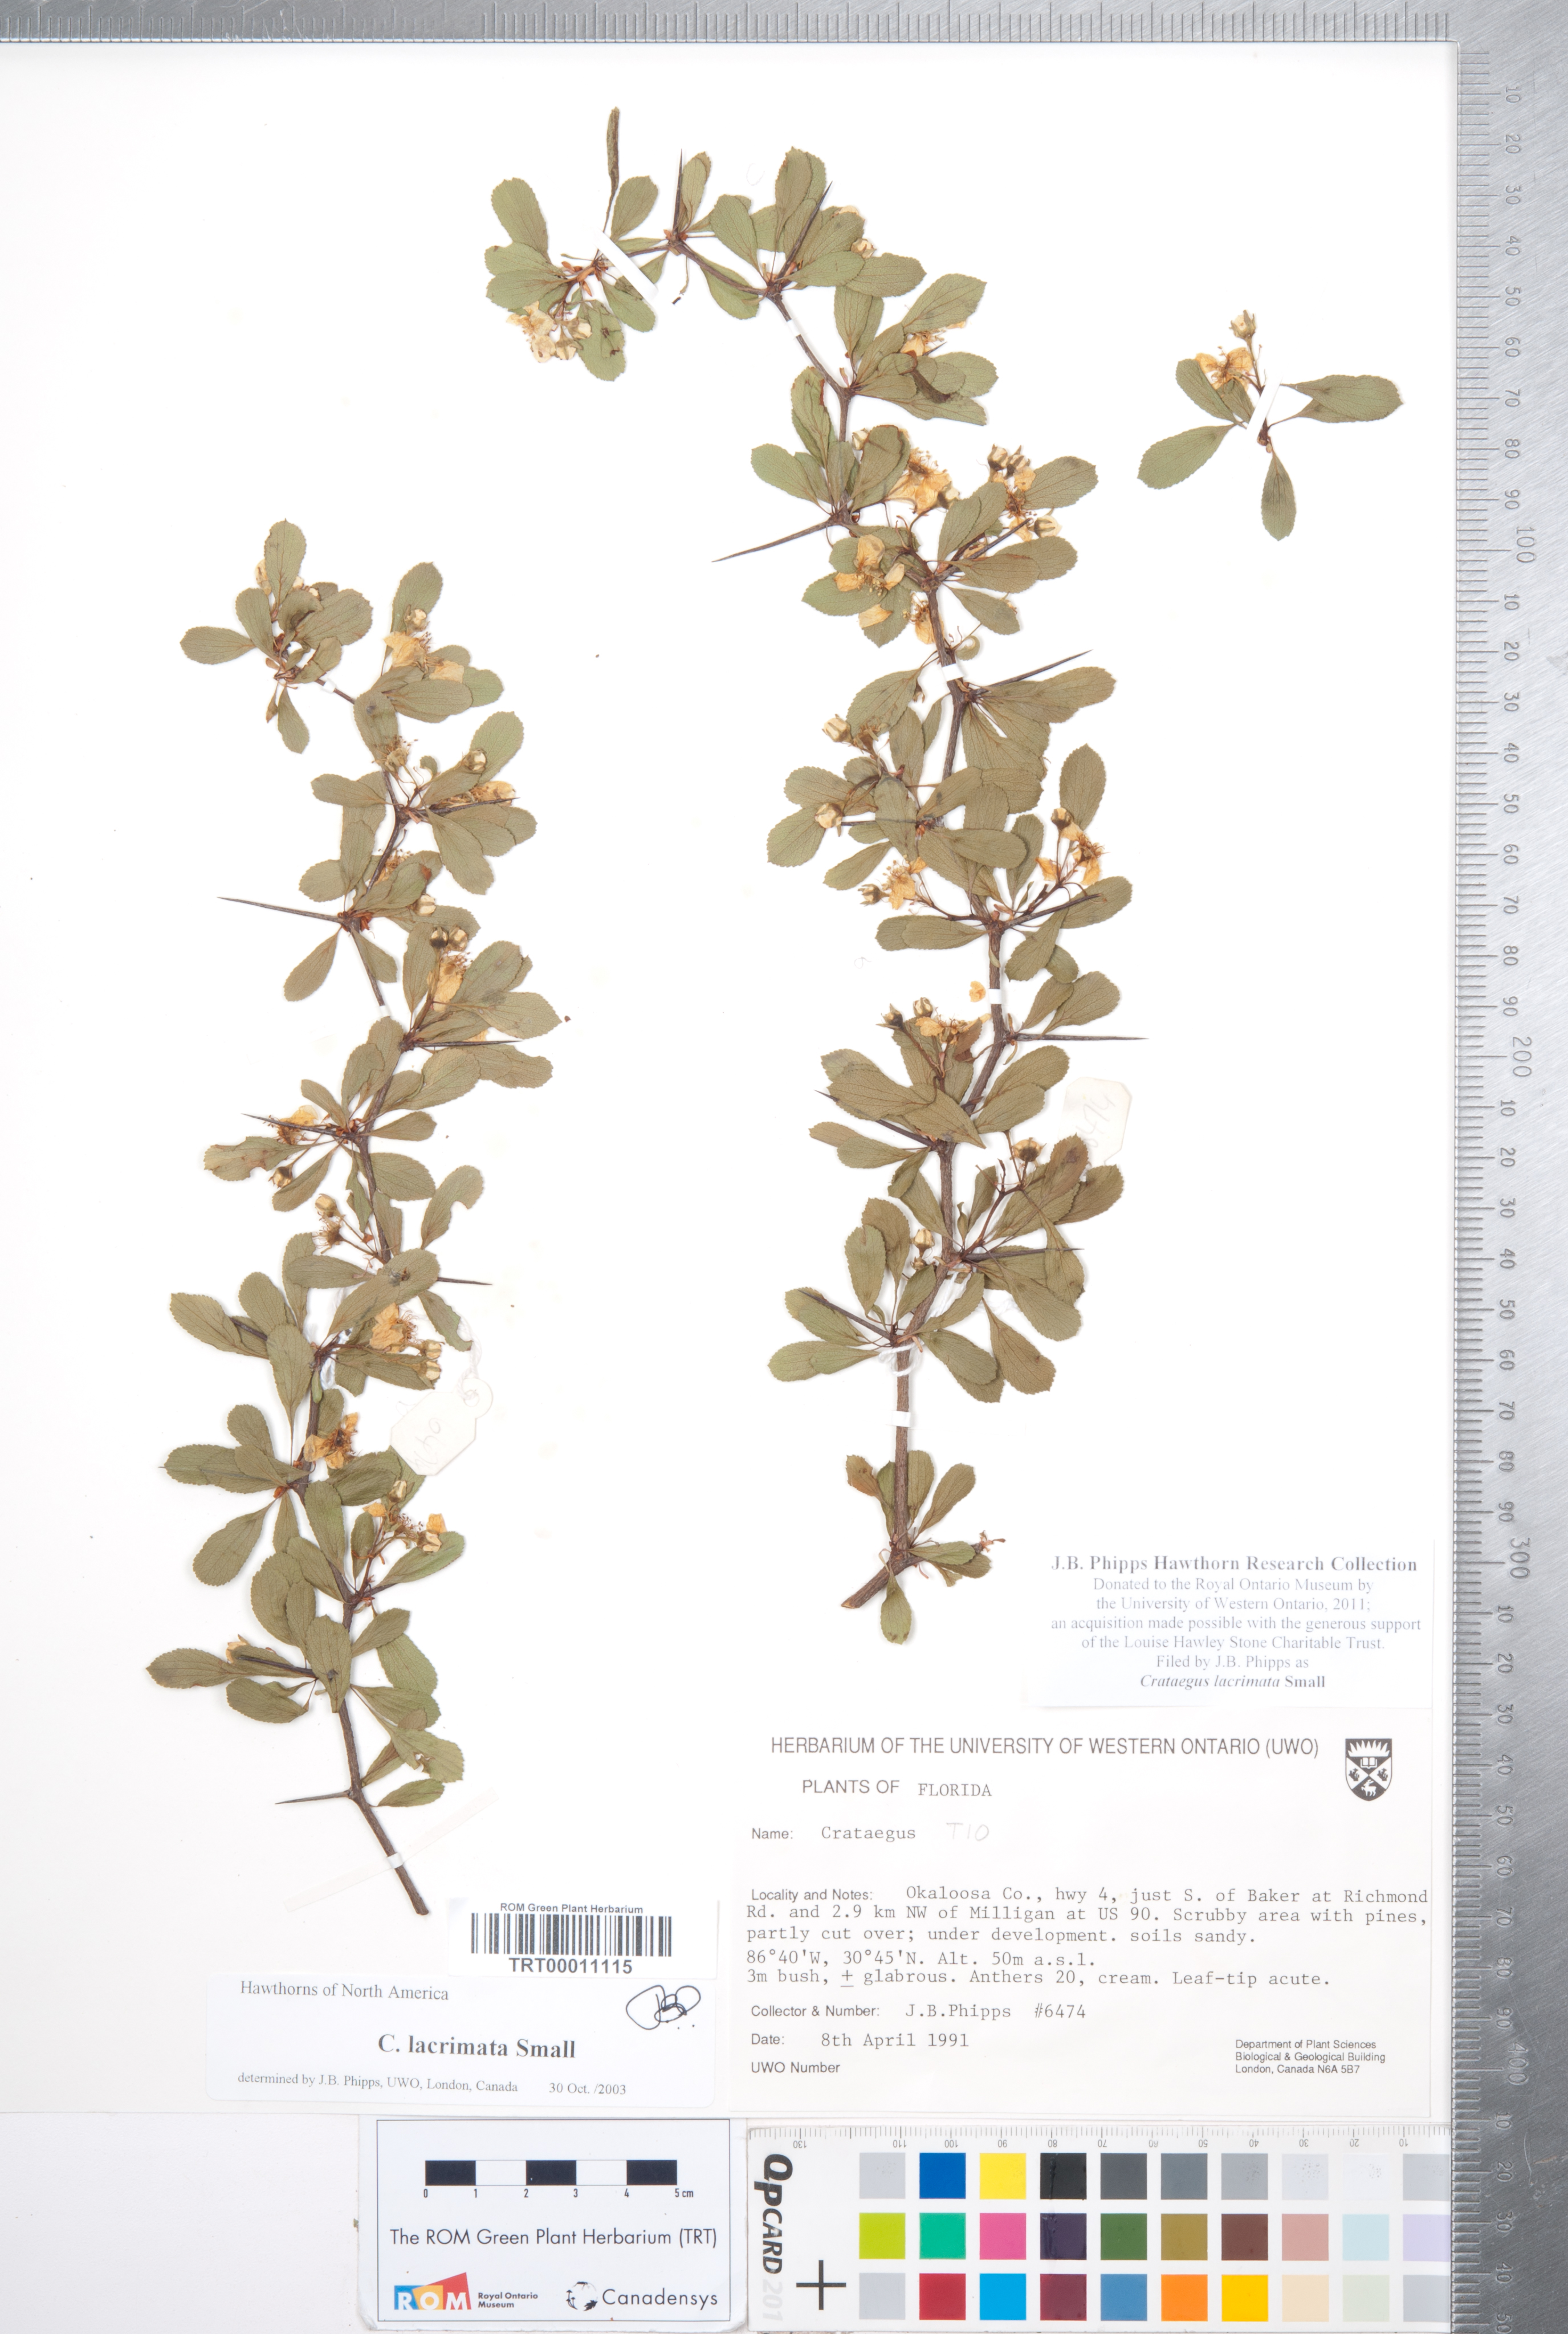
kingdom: Plantae
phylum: Tracheophyta
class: Magnoliopsida
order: Rosales
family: Rosaceae
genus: Crataegus
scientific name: Crataegus lacrimata
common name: Weeping hawthorn
